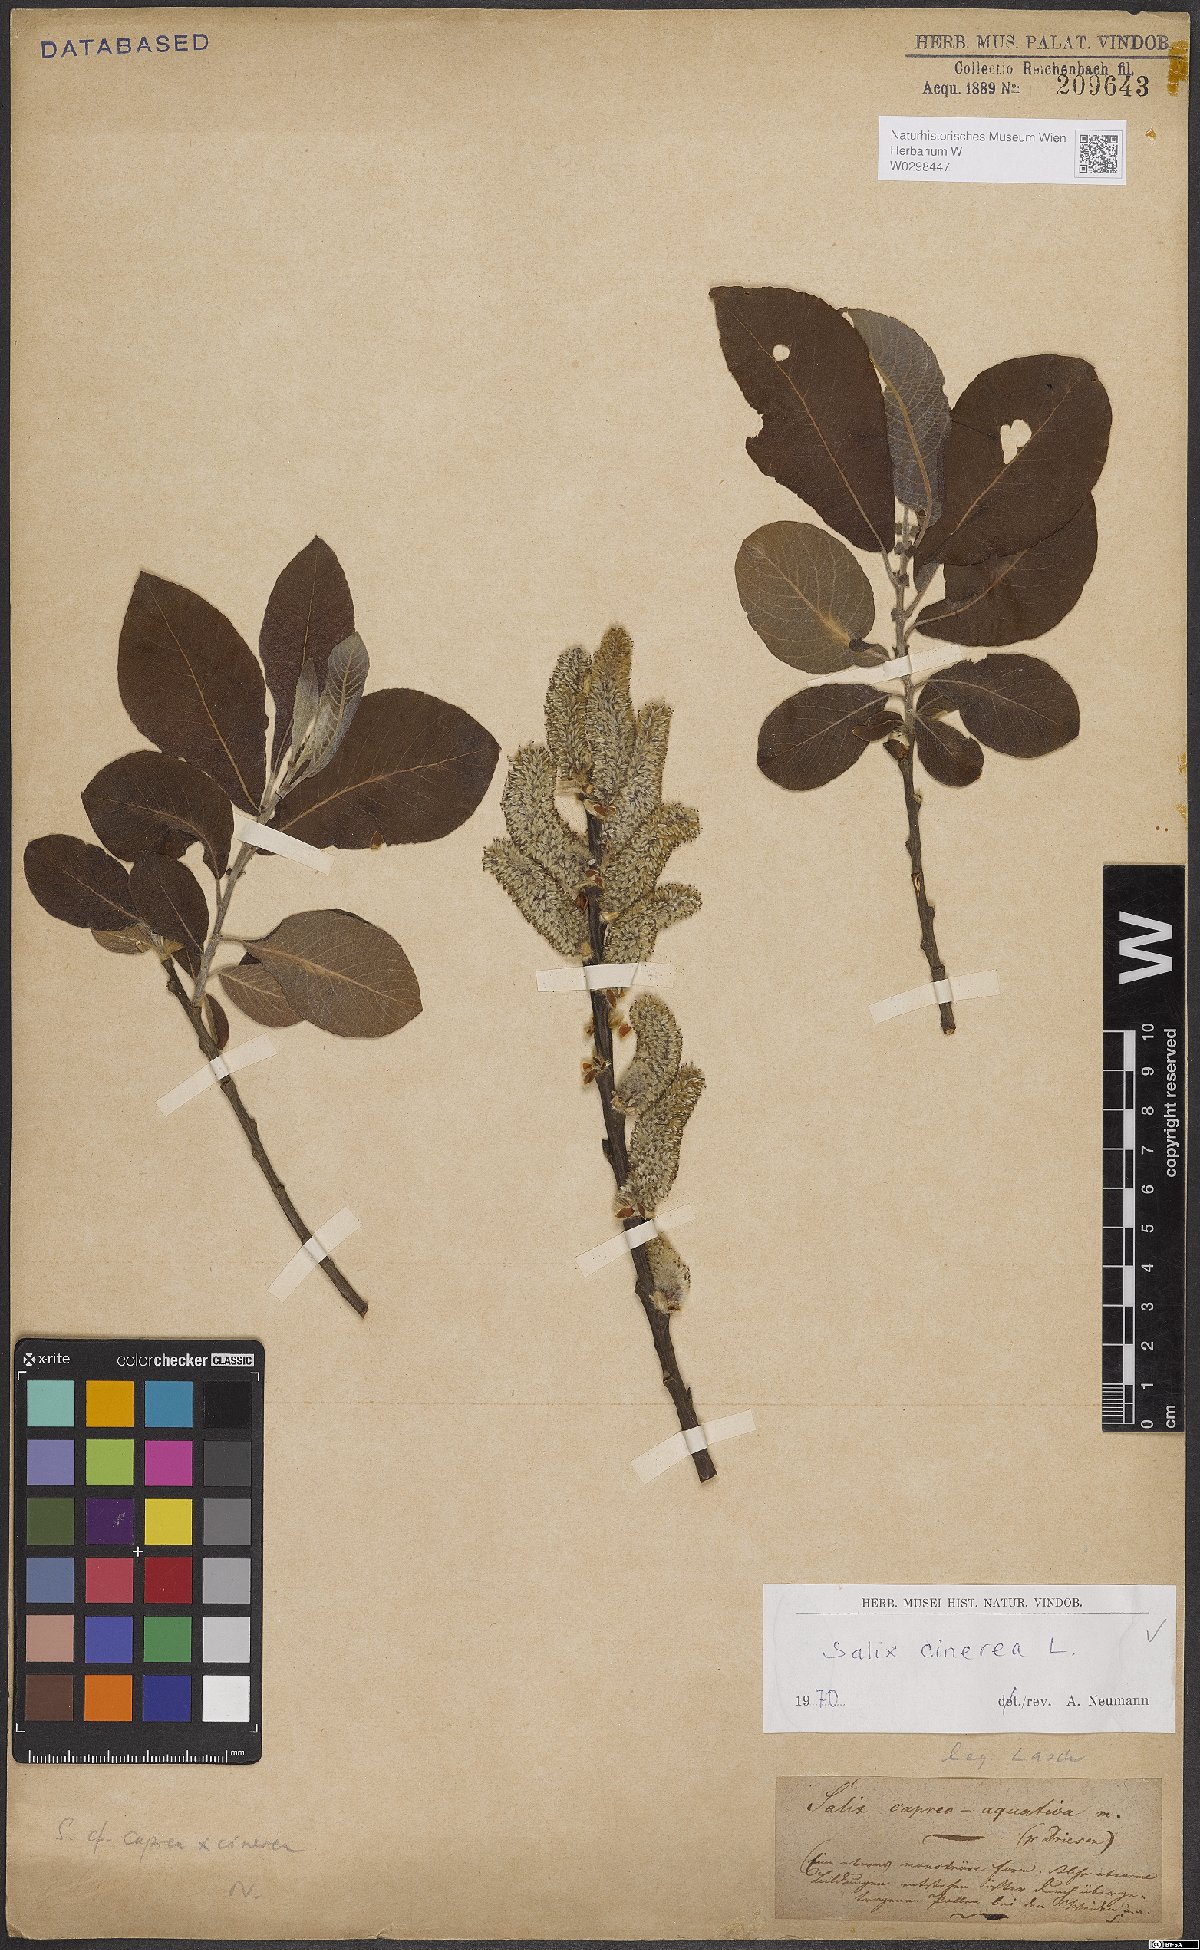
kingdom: Plantae
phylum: Tracheophyta
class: Magnoliopsida
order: Malpighiales
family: Salicaceae
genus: Salix
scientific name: Salix cinerea
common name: Common sallow
